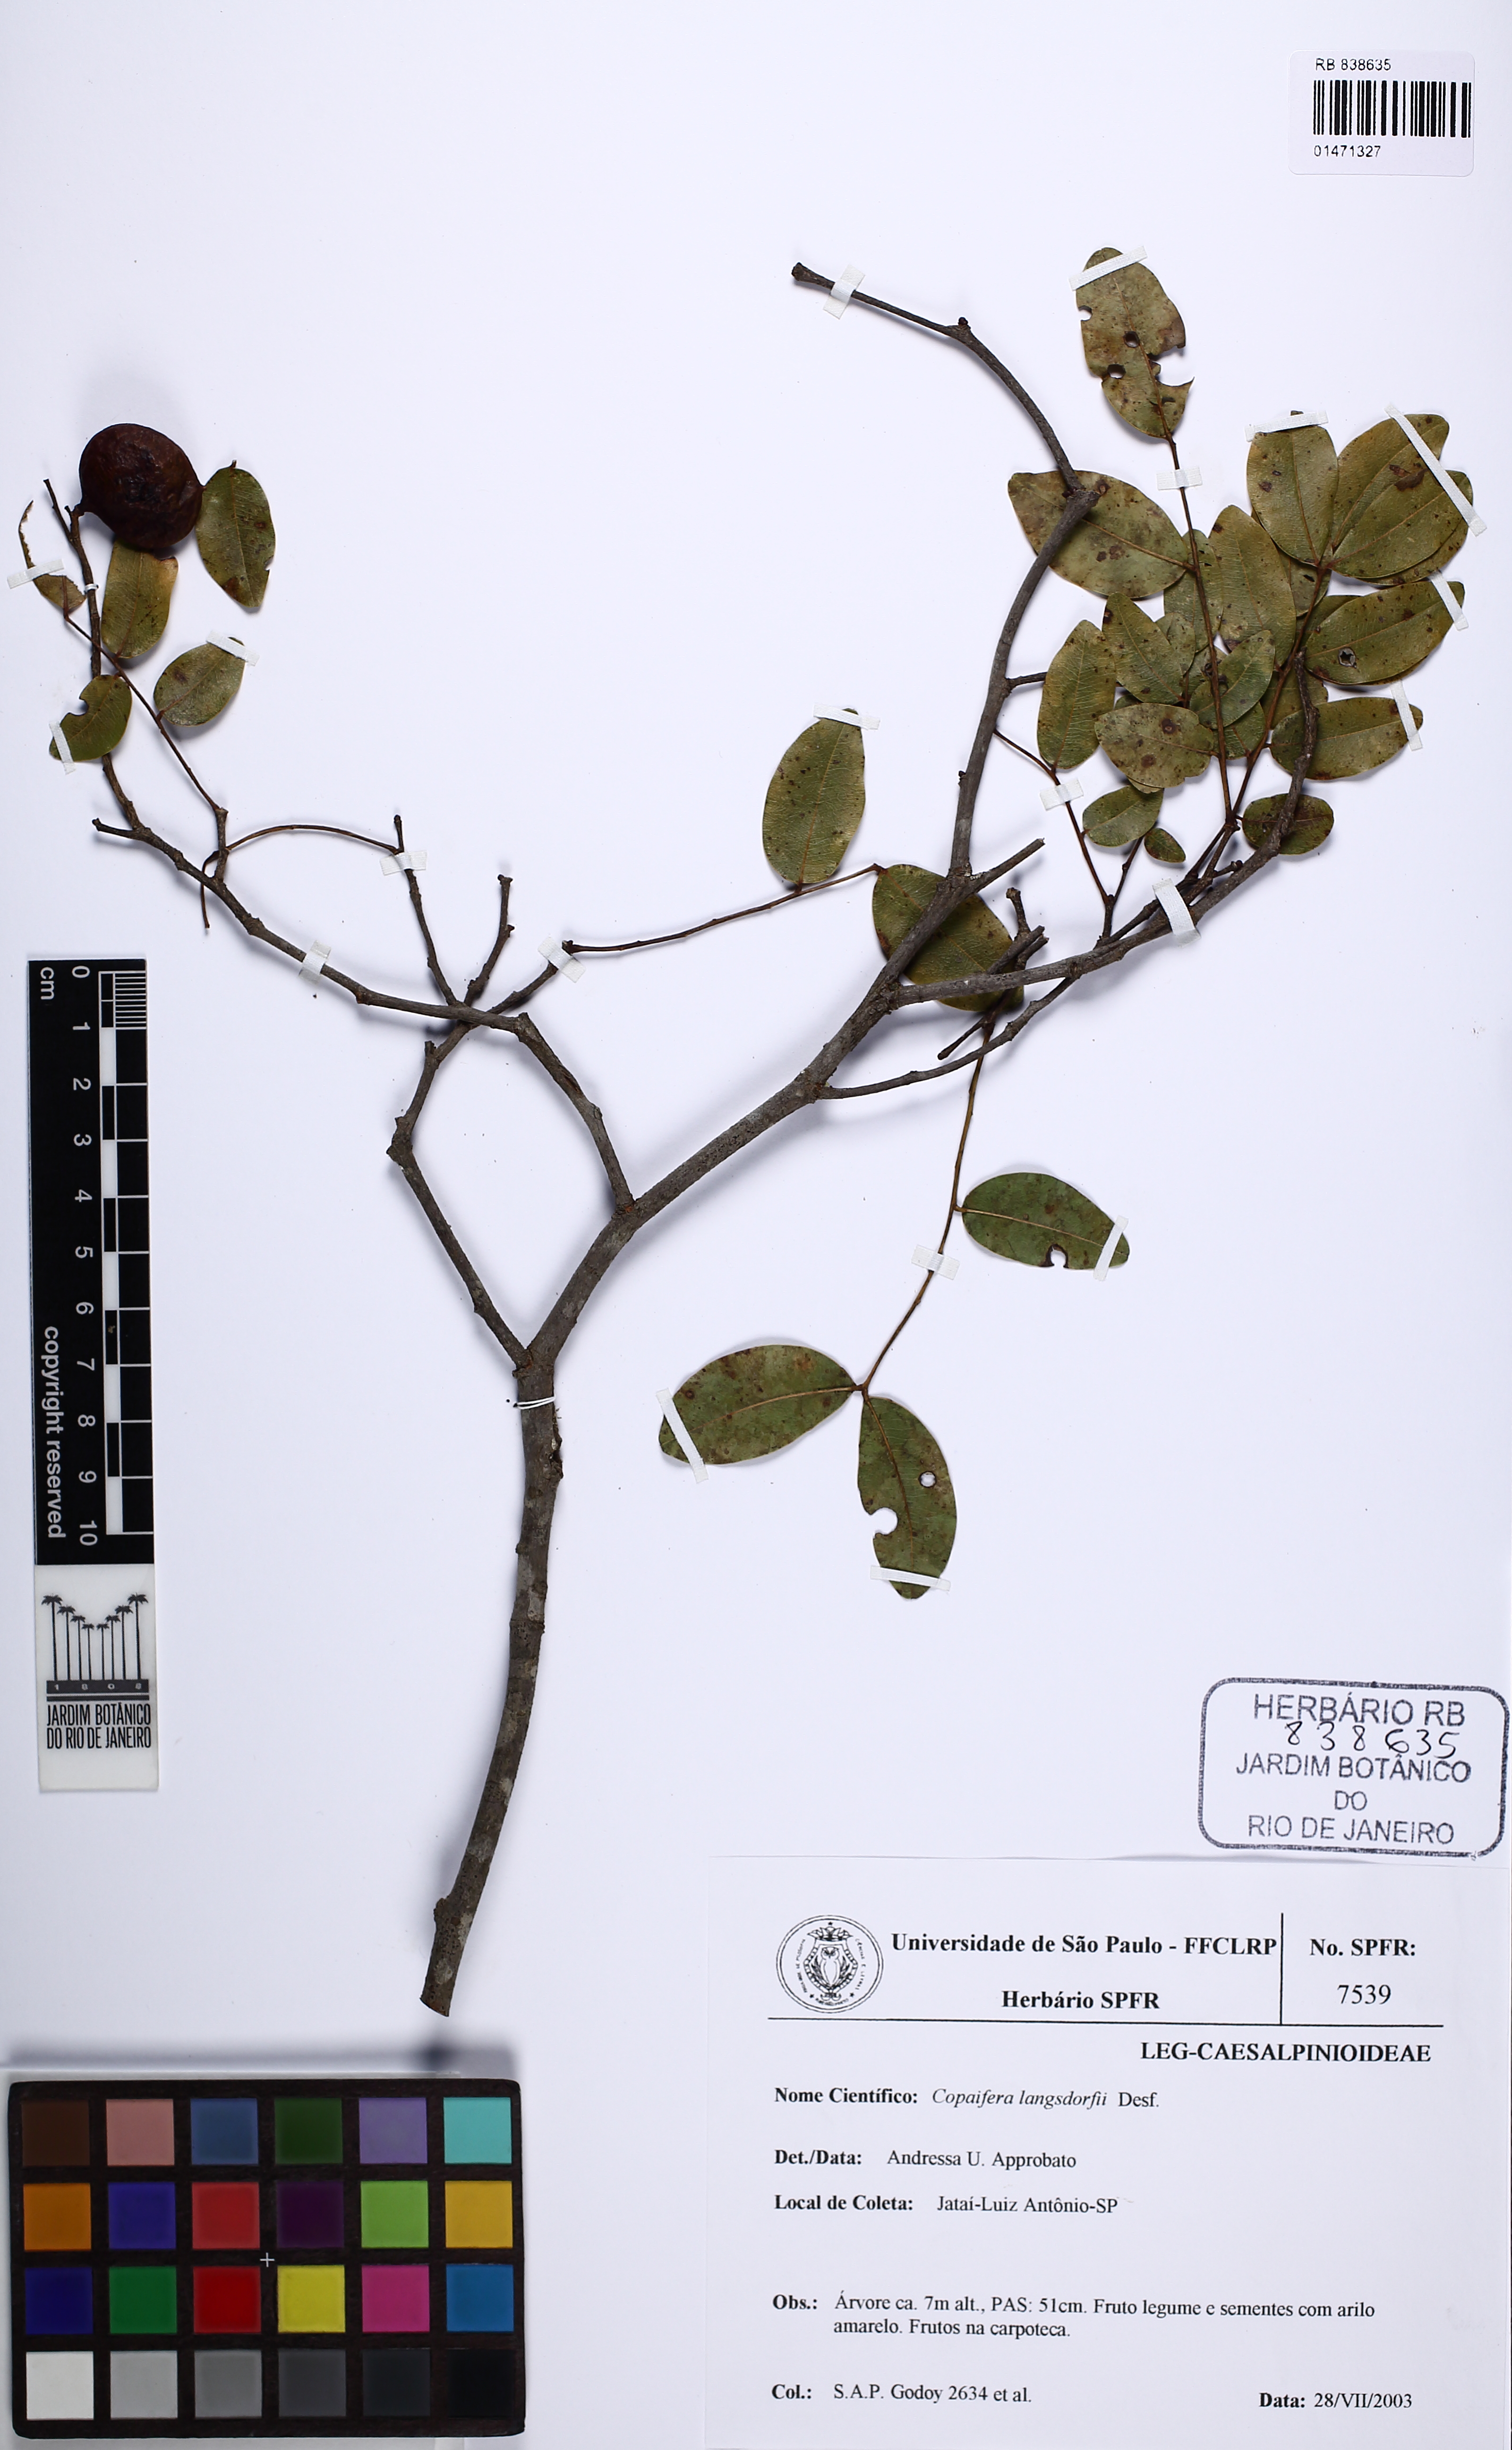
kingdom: Plantae
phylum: Tracheophyta
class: Magnoliopsida
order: Fabales
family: Fabaceae
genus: Copaifera
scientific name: Copaifera langsdorffii
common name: Brazilian diesel tree
